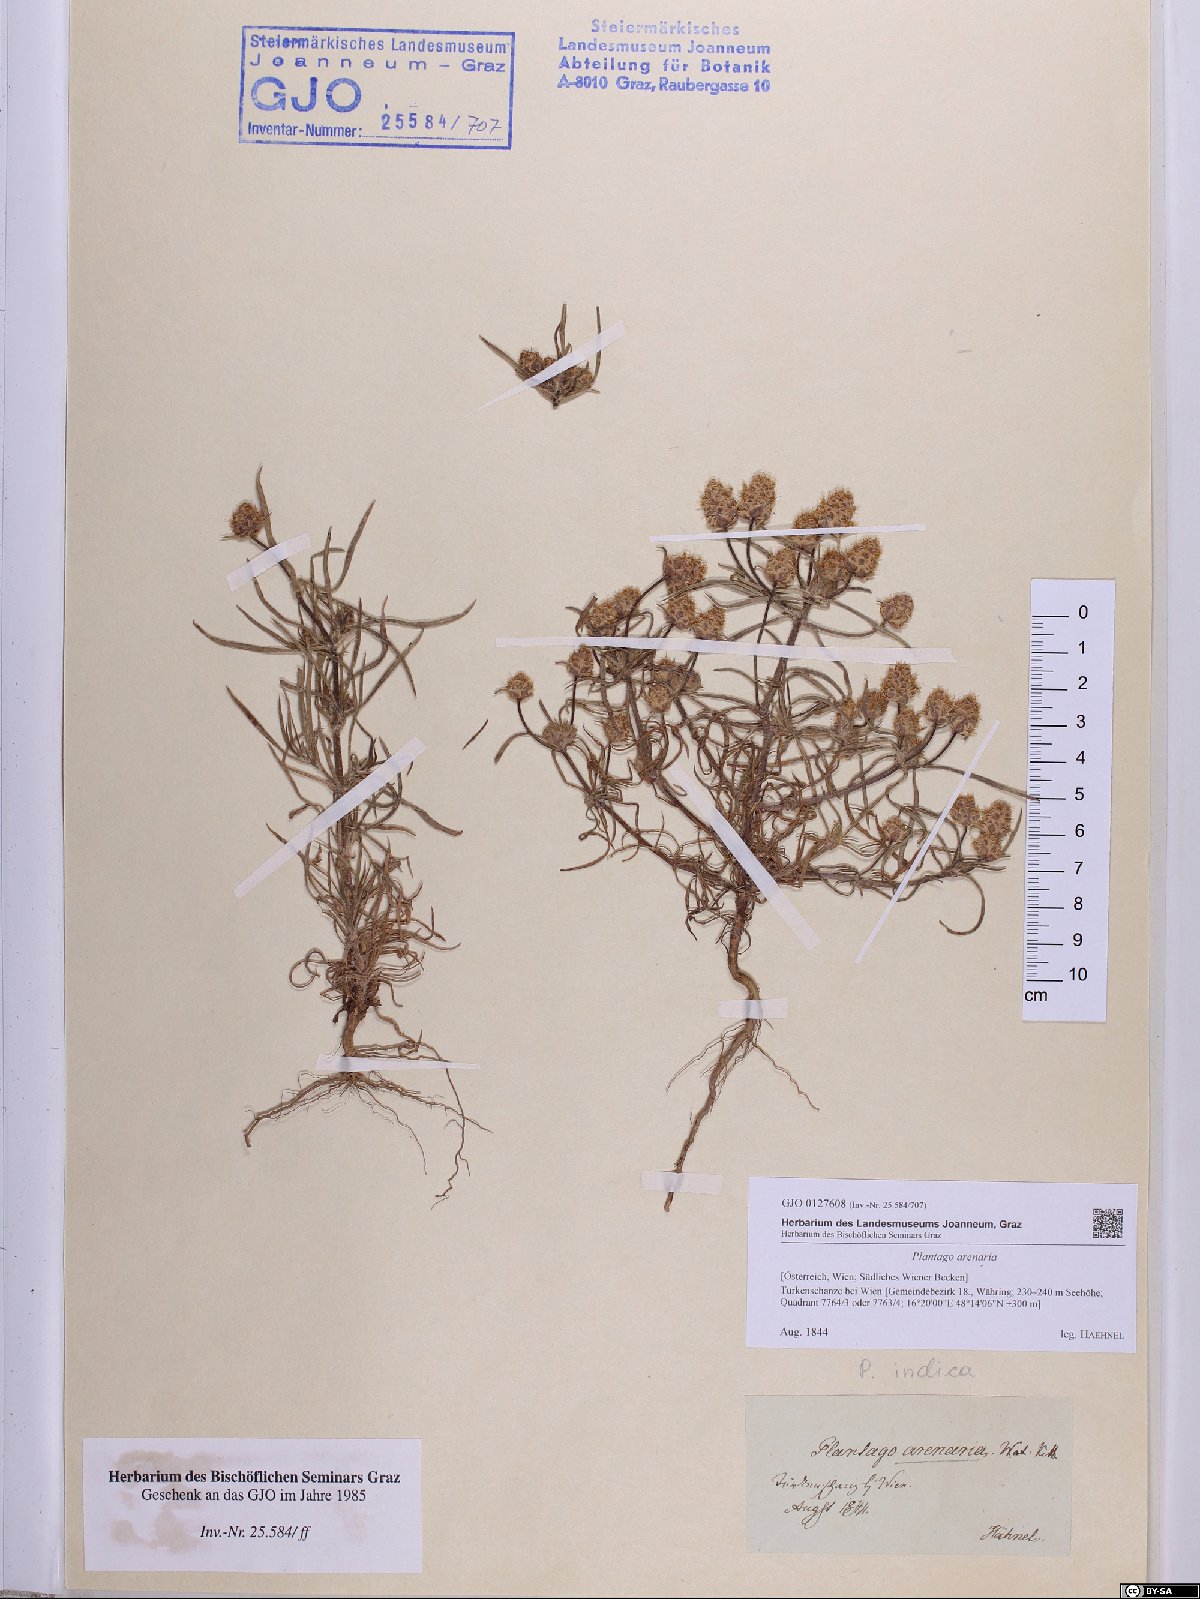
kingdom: Plantae
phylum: Tracheophyta
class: Magnoliopsida
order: Lamiales
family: Plantaginaceae
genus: Plantago
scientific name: Plantago arenaria
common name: Branched plantain
